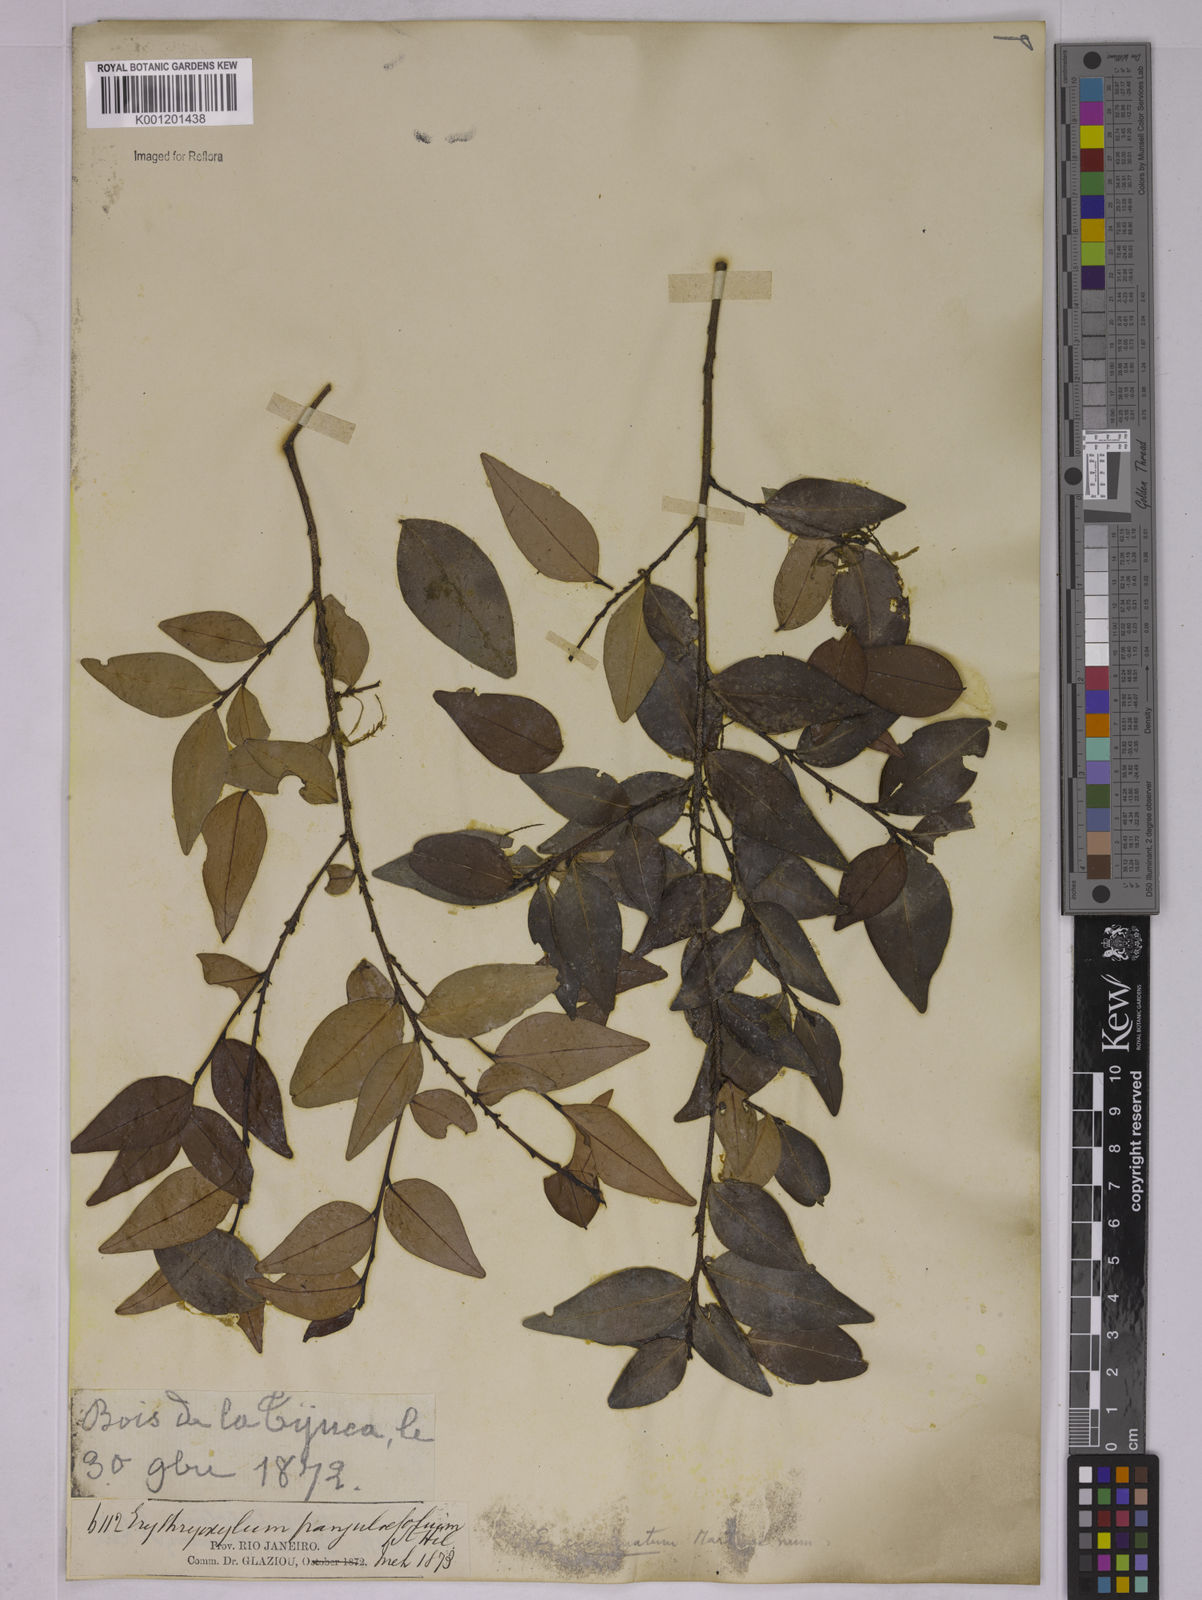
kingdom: Plantae
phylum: Tracheophyta
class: Magnoliopsida
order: Malpighiales
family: Erythroxylaceae
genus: Erythroxylum
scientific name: Erythroxylum cincinnatum
